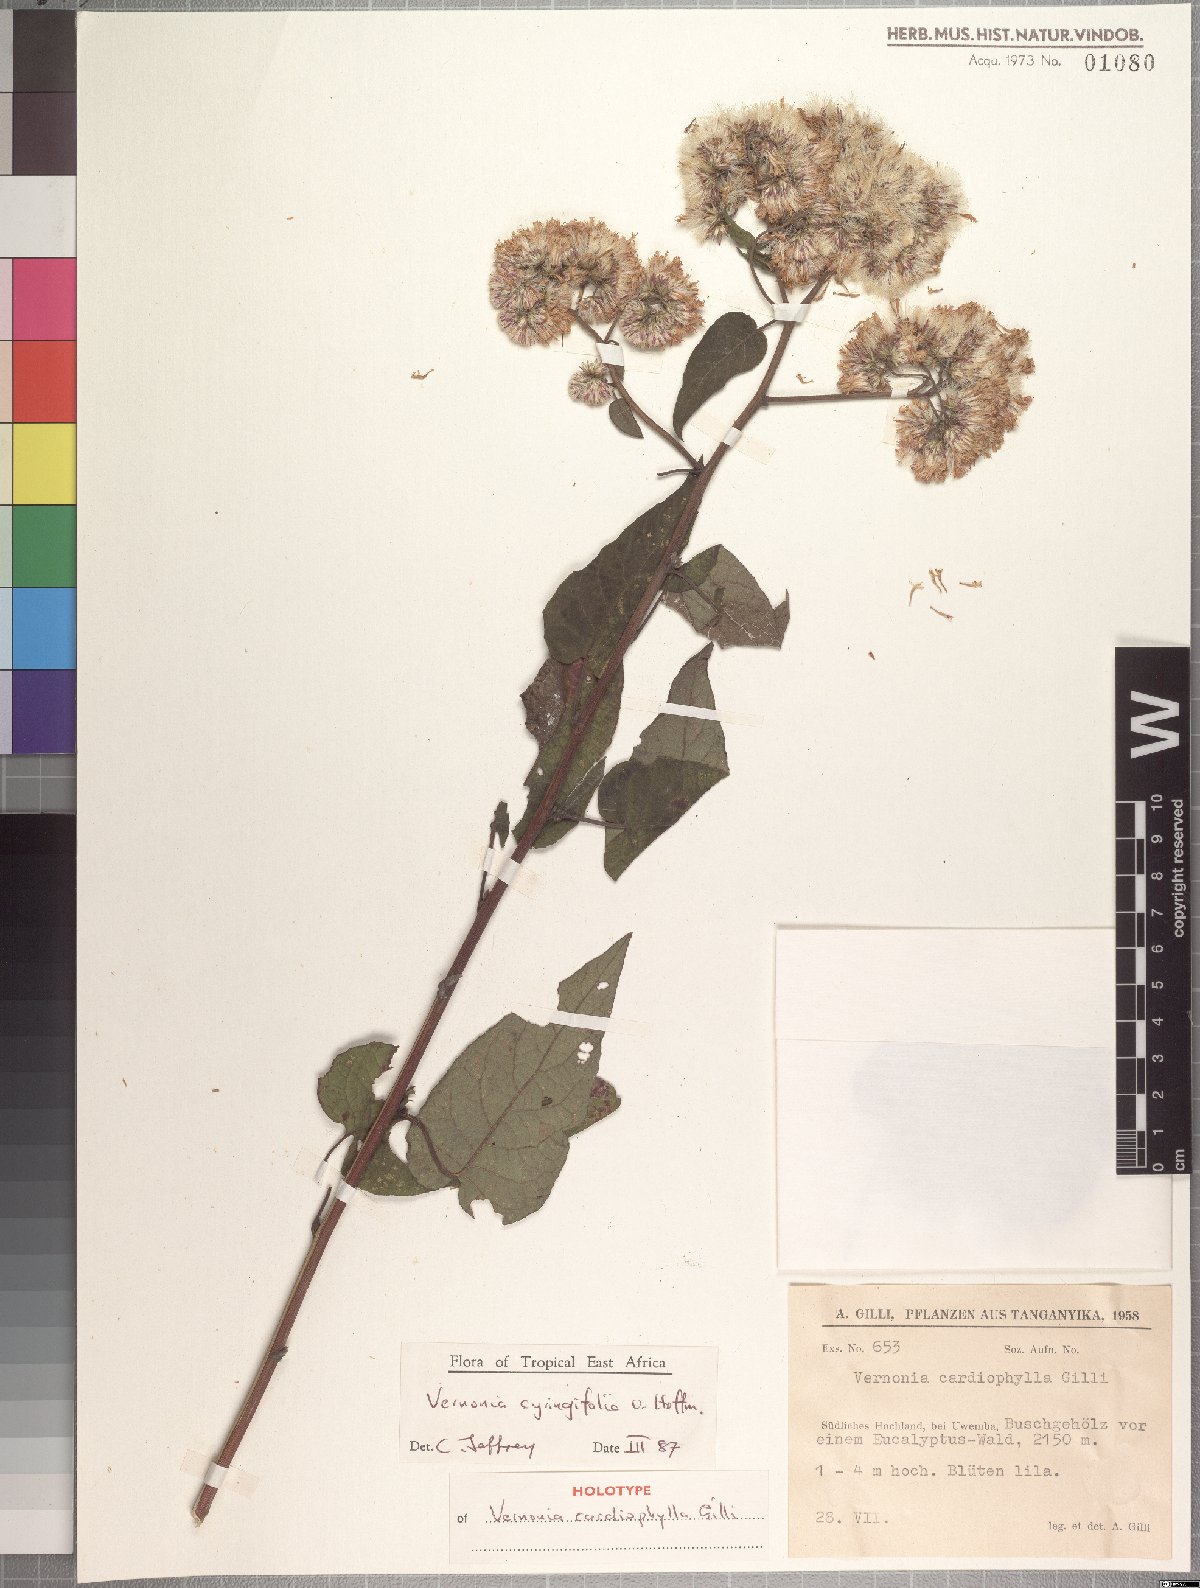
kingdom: Plantae
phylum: Tracheophyta
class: Magnoliopsida
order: Asterales
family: Asteraceae
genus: Vernonia
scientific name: Vernonia syringifolia
